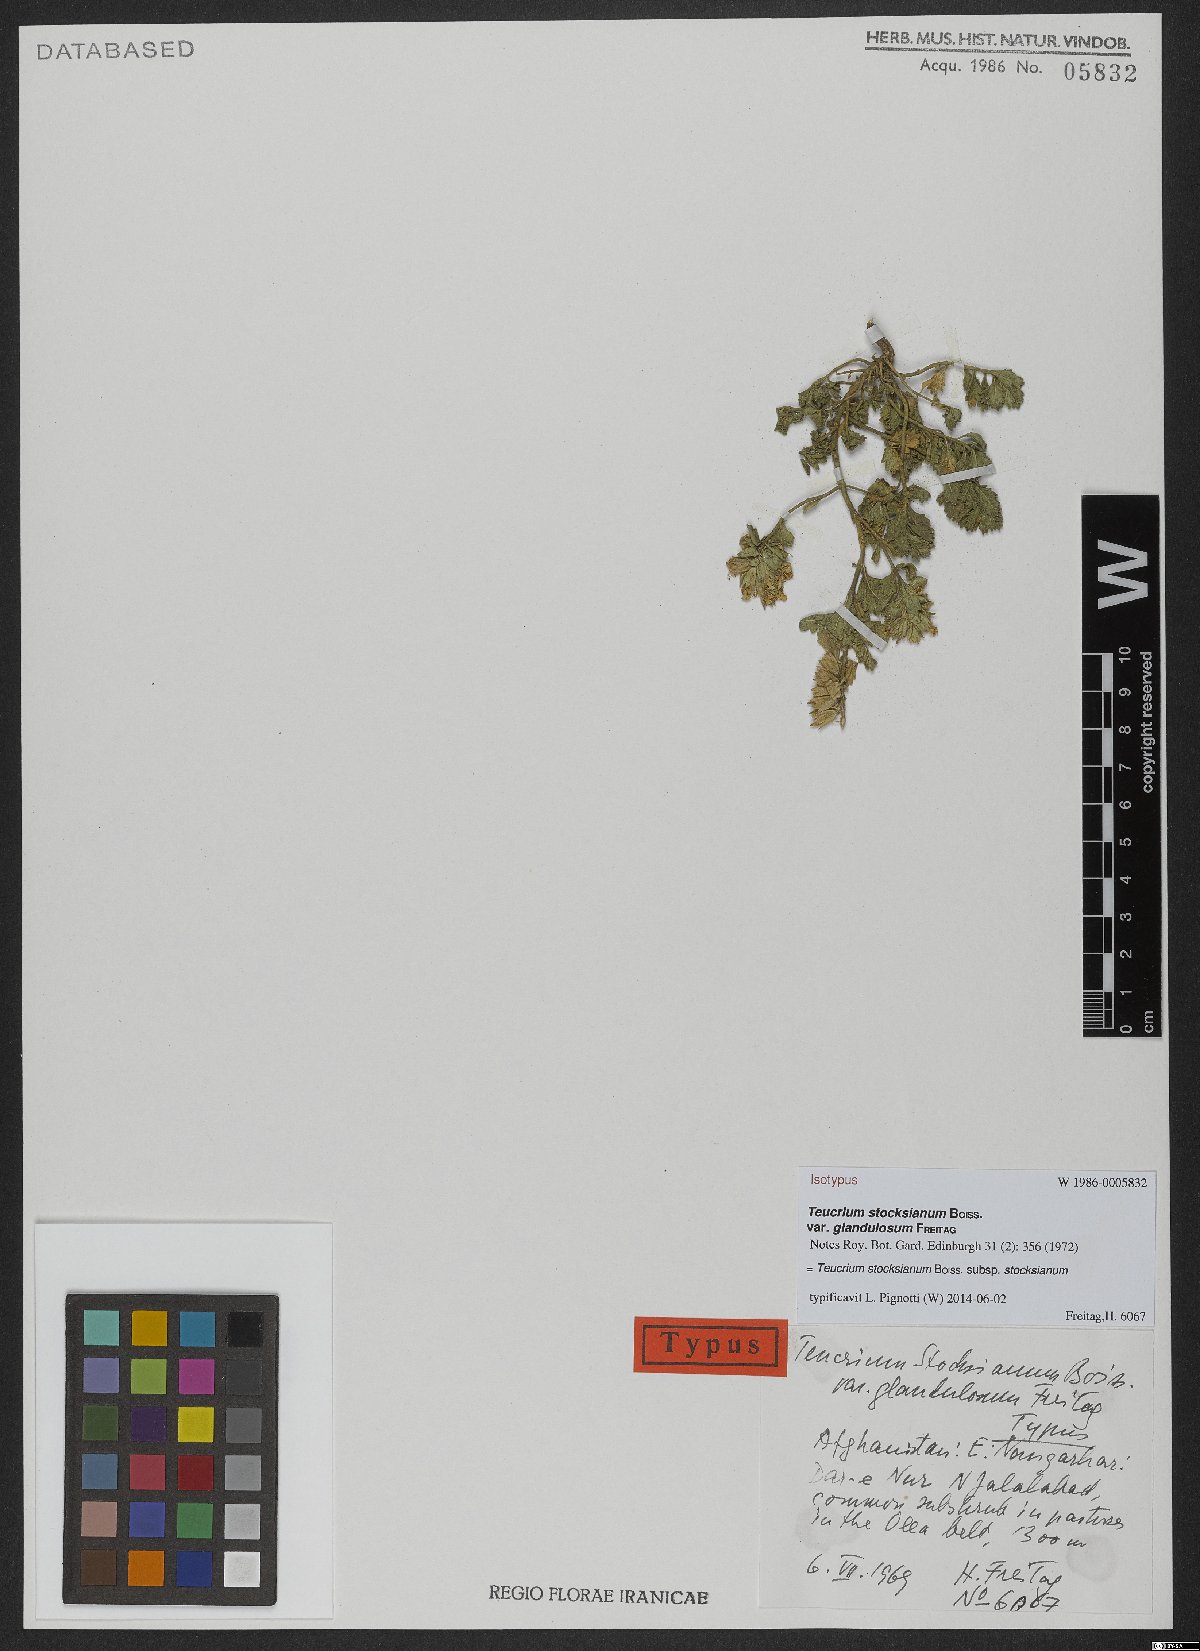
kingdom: Plantae
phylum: Tracheophyta
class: Magnoliopsida
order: Lamiales
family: Lamiaceae
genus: Teucrium
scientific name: Teucrium stocksianum
